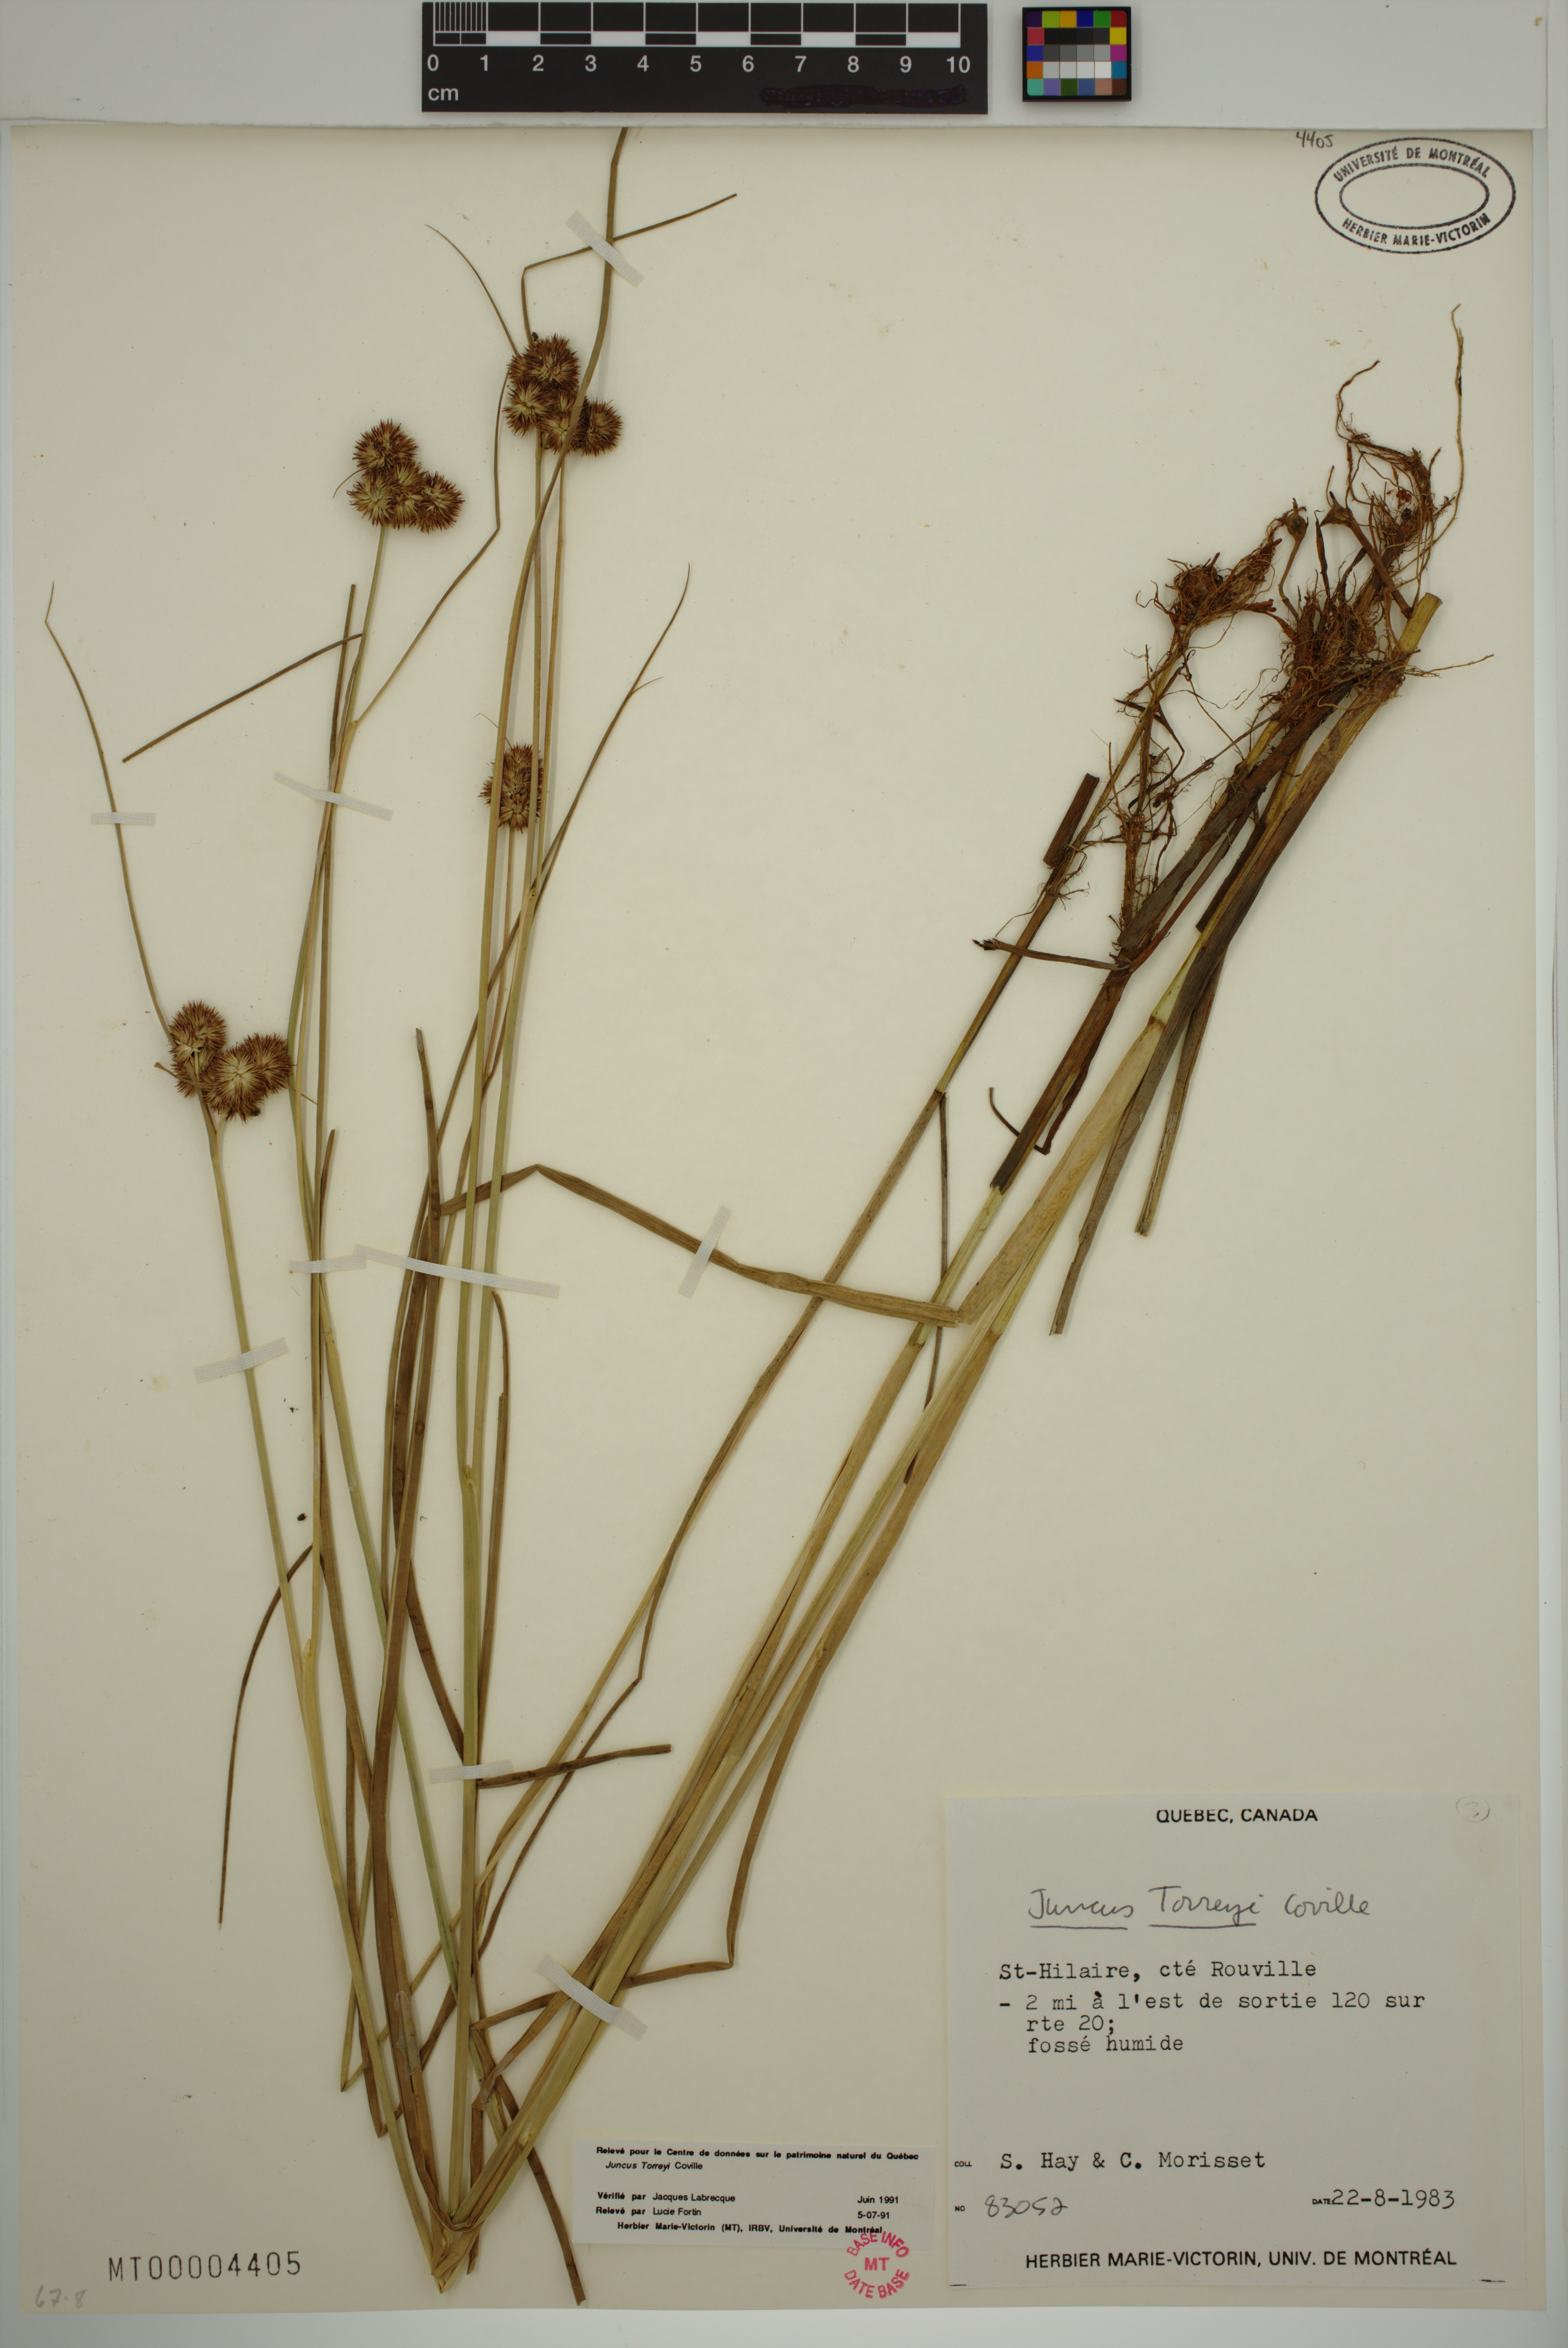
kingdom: Plantae
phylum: Tracheophyta
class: Liliopsida
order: Poales
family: Juncaceae
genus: Juncus
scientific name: Juncus torreyi
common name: Torrey's rush
